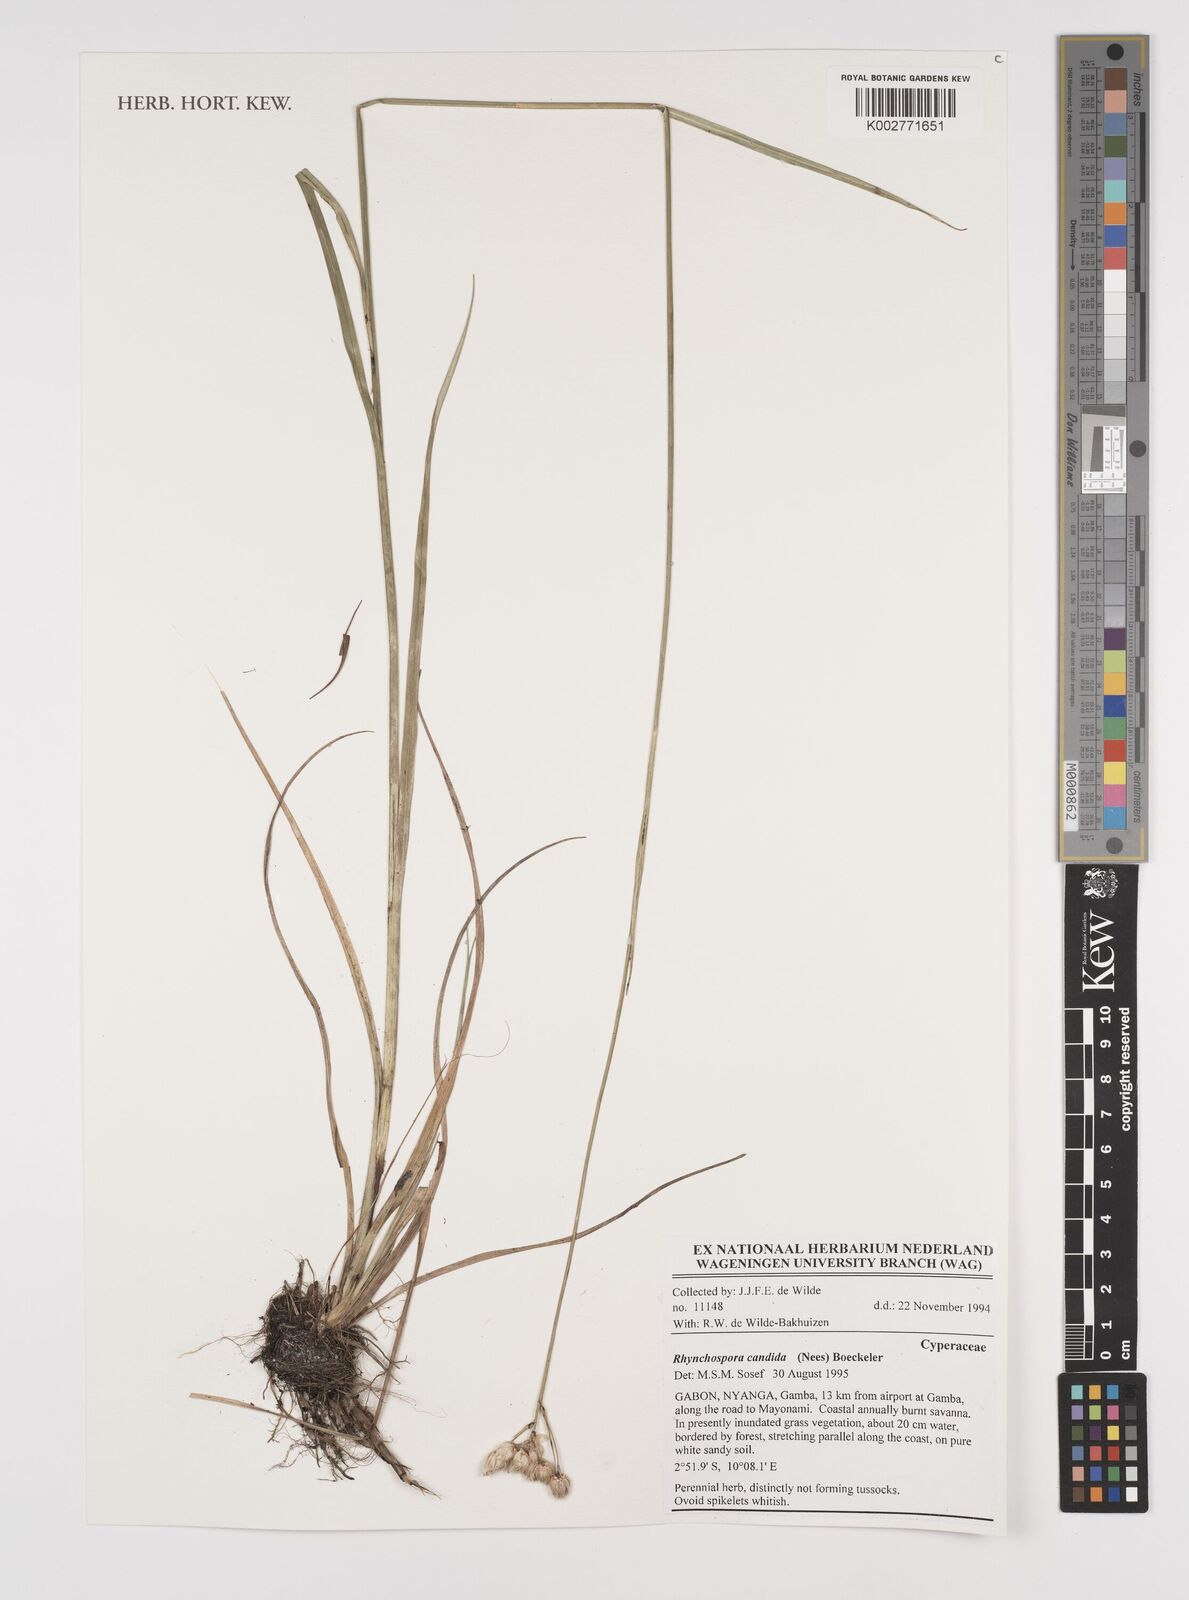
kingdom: Plantae
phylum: Tracheophyta
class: Liliopsida
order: Poales
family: Cyperaceae
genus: Rhynchospora
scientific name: Rhynchospora candida
